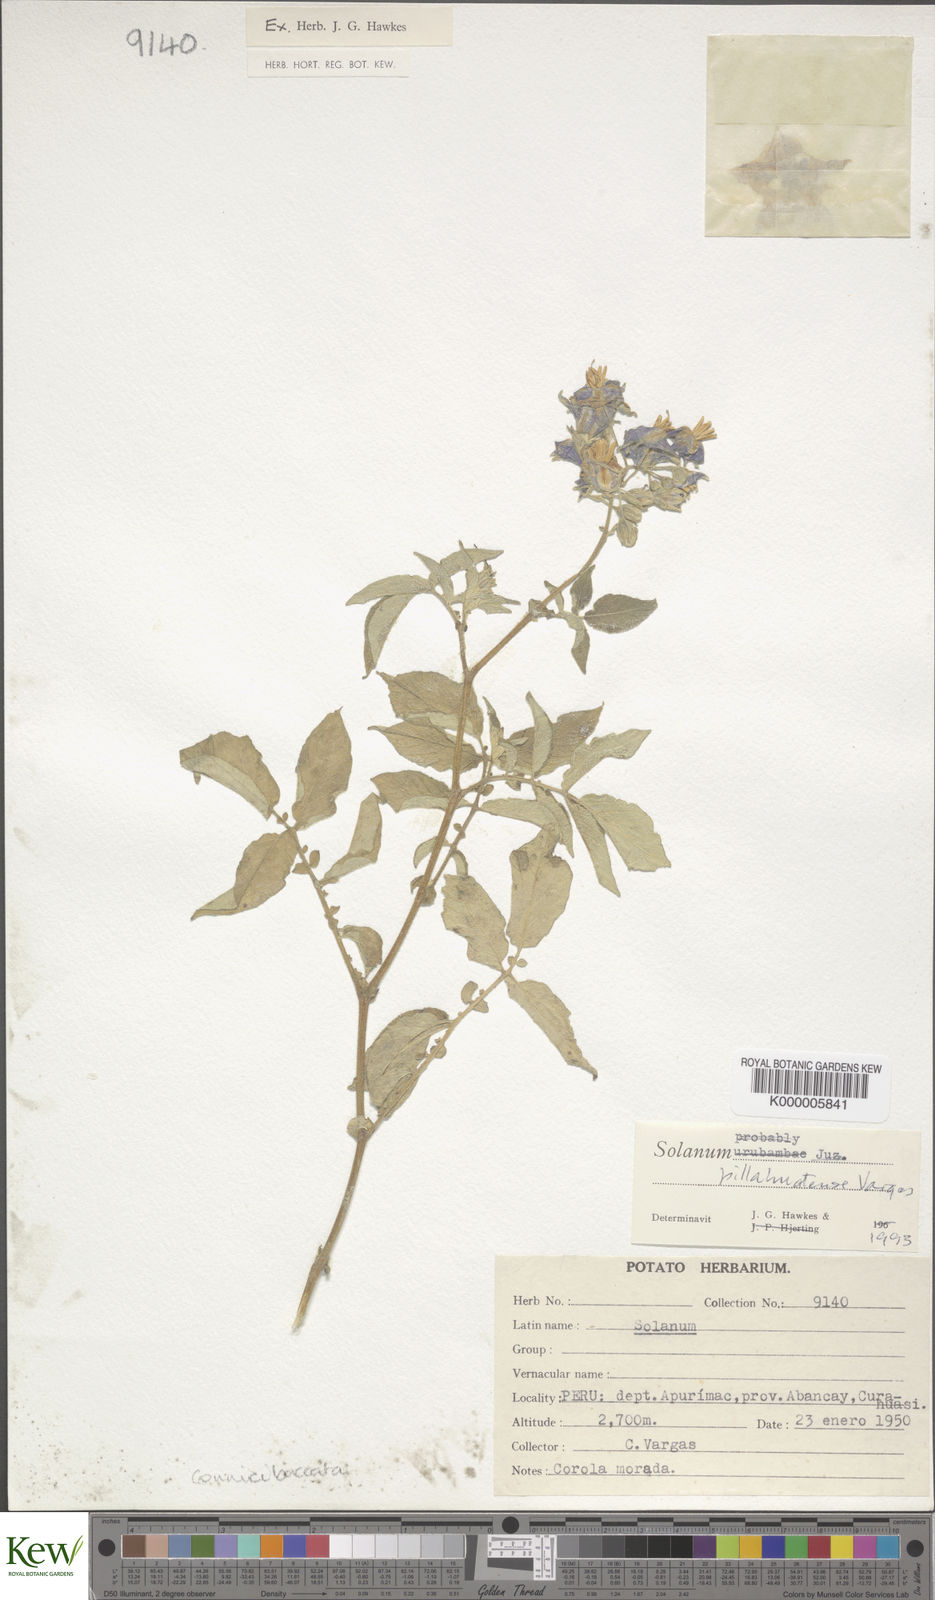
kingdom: Plantae
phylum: Tracheophyta
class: Magnoliopsida
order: Solanales
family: Solanaceae
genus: Solanum
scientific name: Solanum pillahuatense
